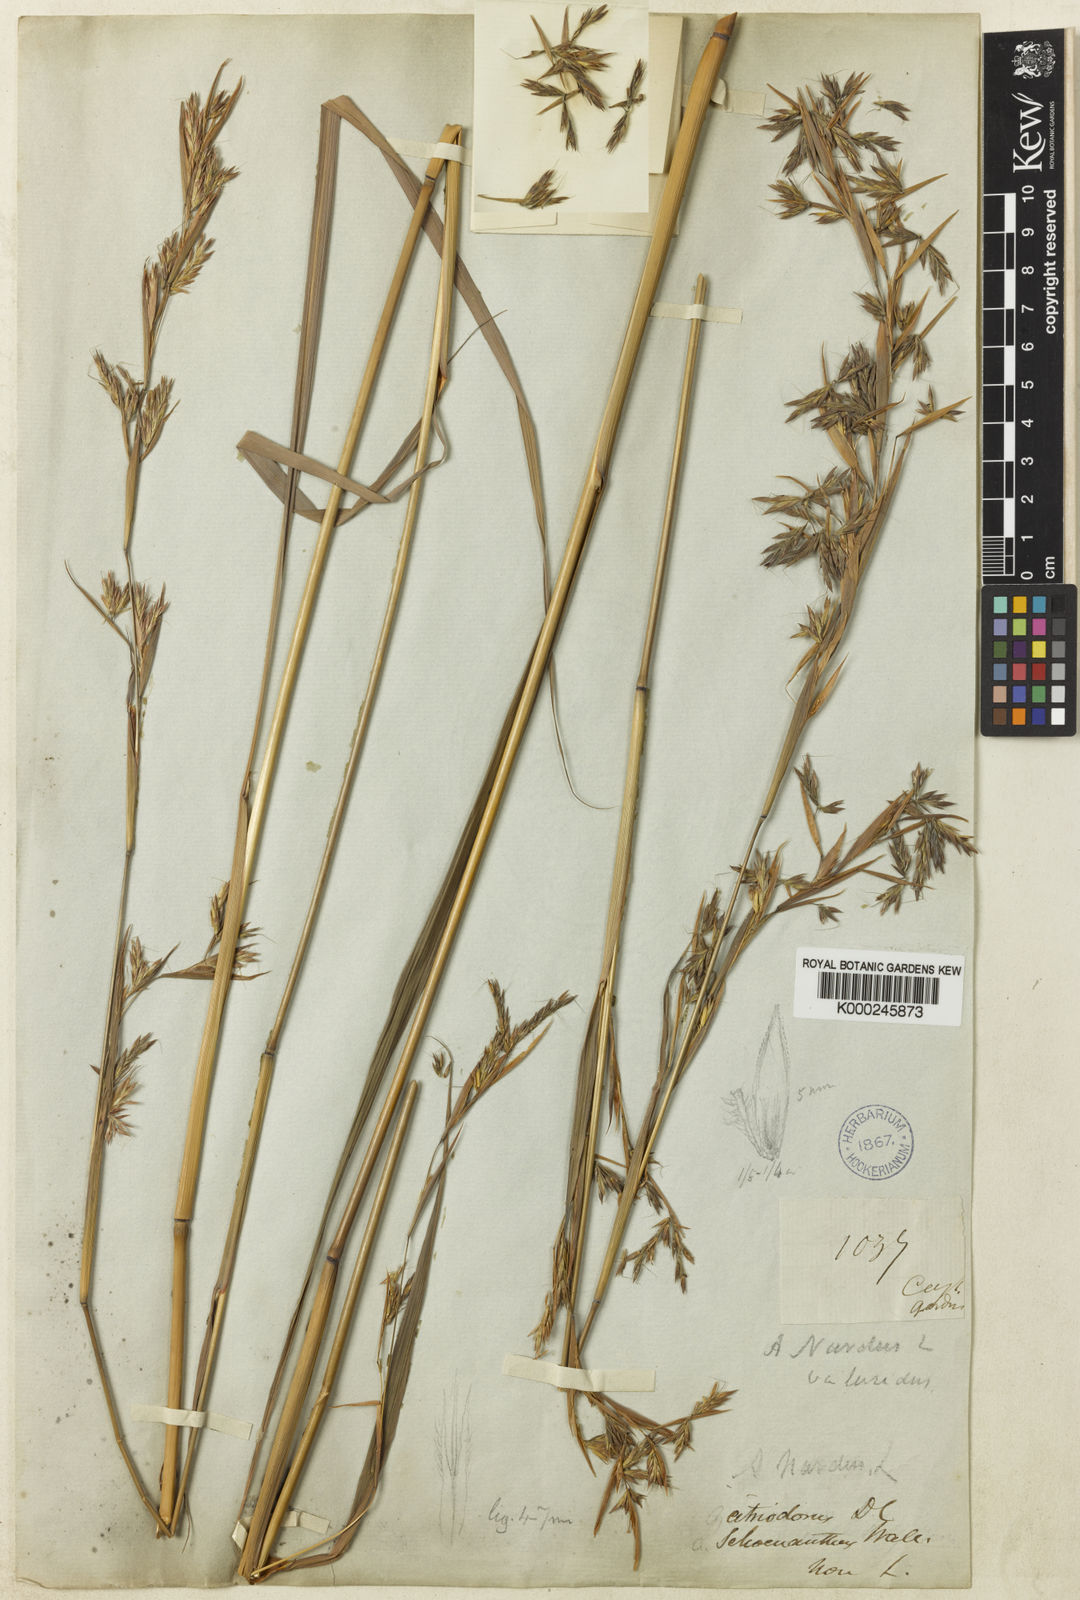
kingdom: Plantae
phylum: Tracheophyta
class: Liliopsida
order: Poales
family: Poaceae
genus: Cymbopogon
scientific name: Cymbopogon nardus
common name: Giant turpentine grass
